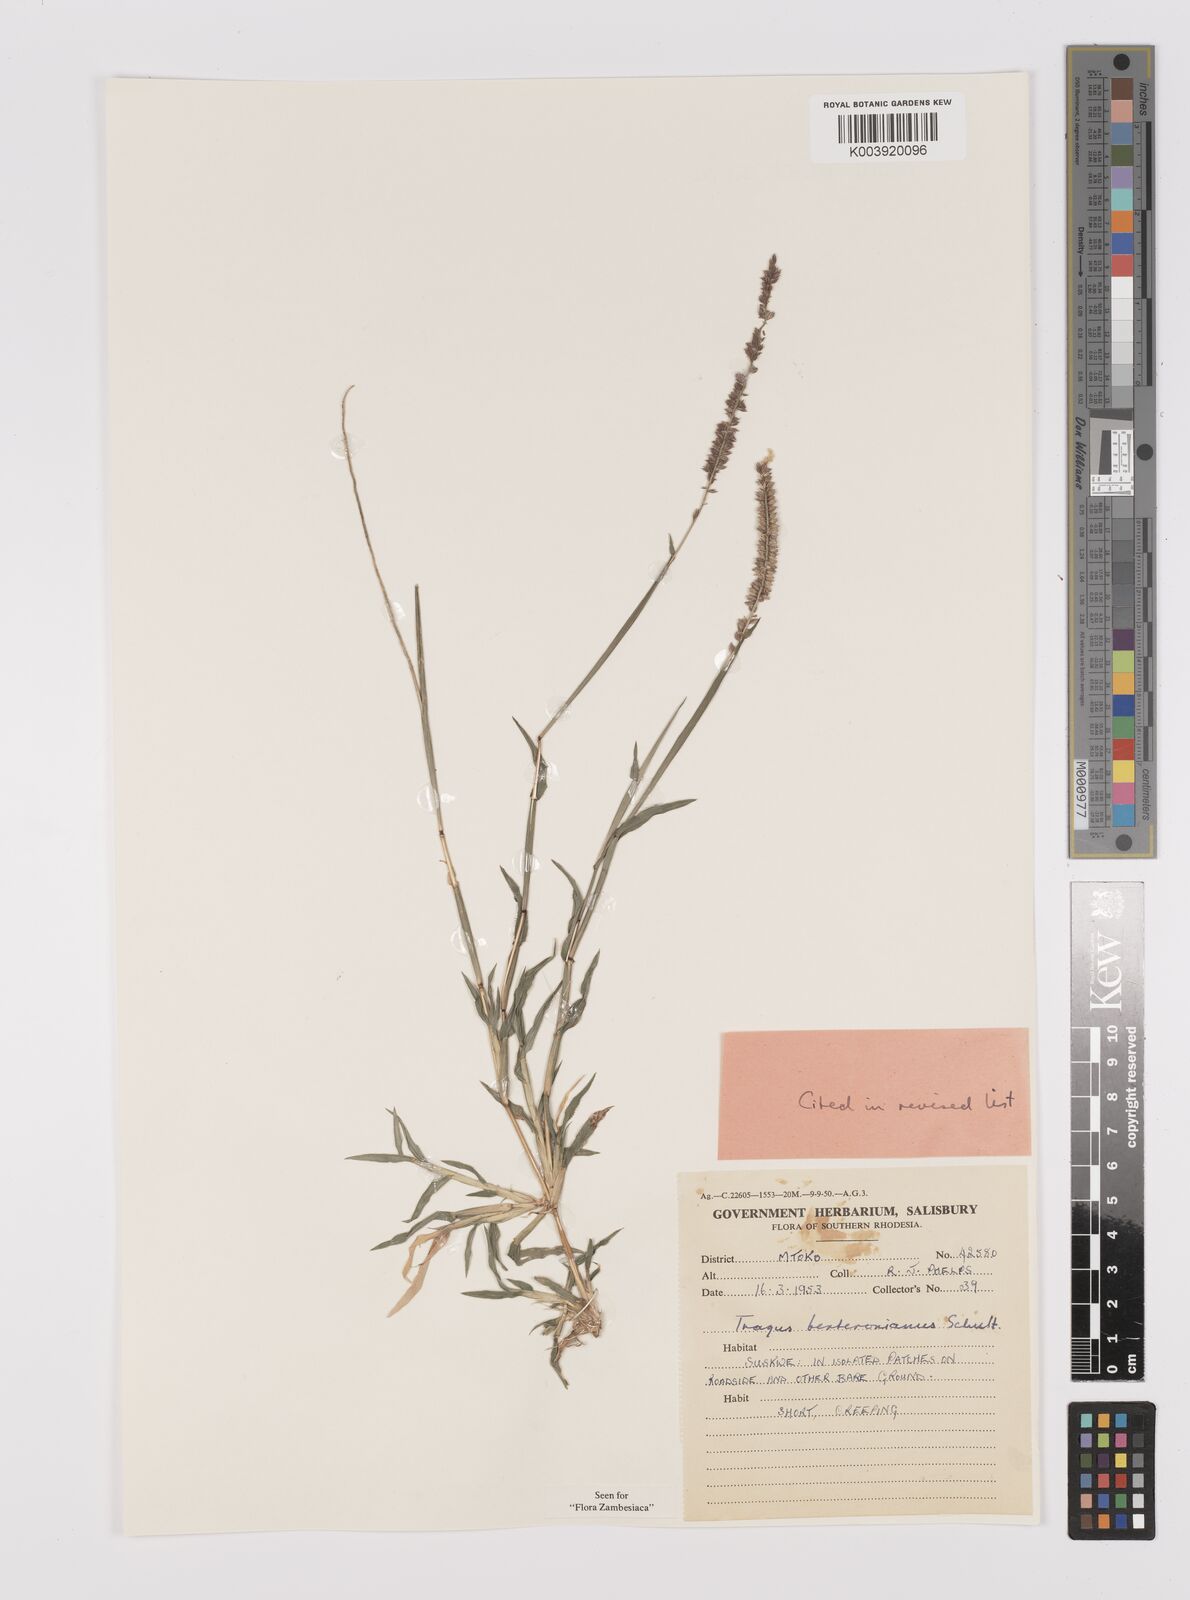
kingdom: Plantae
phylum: Tracheophyta
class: Liliopsida
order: Poales
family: Poaceae
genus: Tragus
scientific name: Tragus berteronianus
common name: African bur-grass
